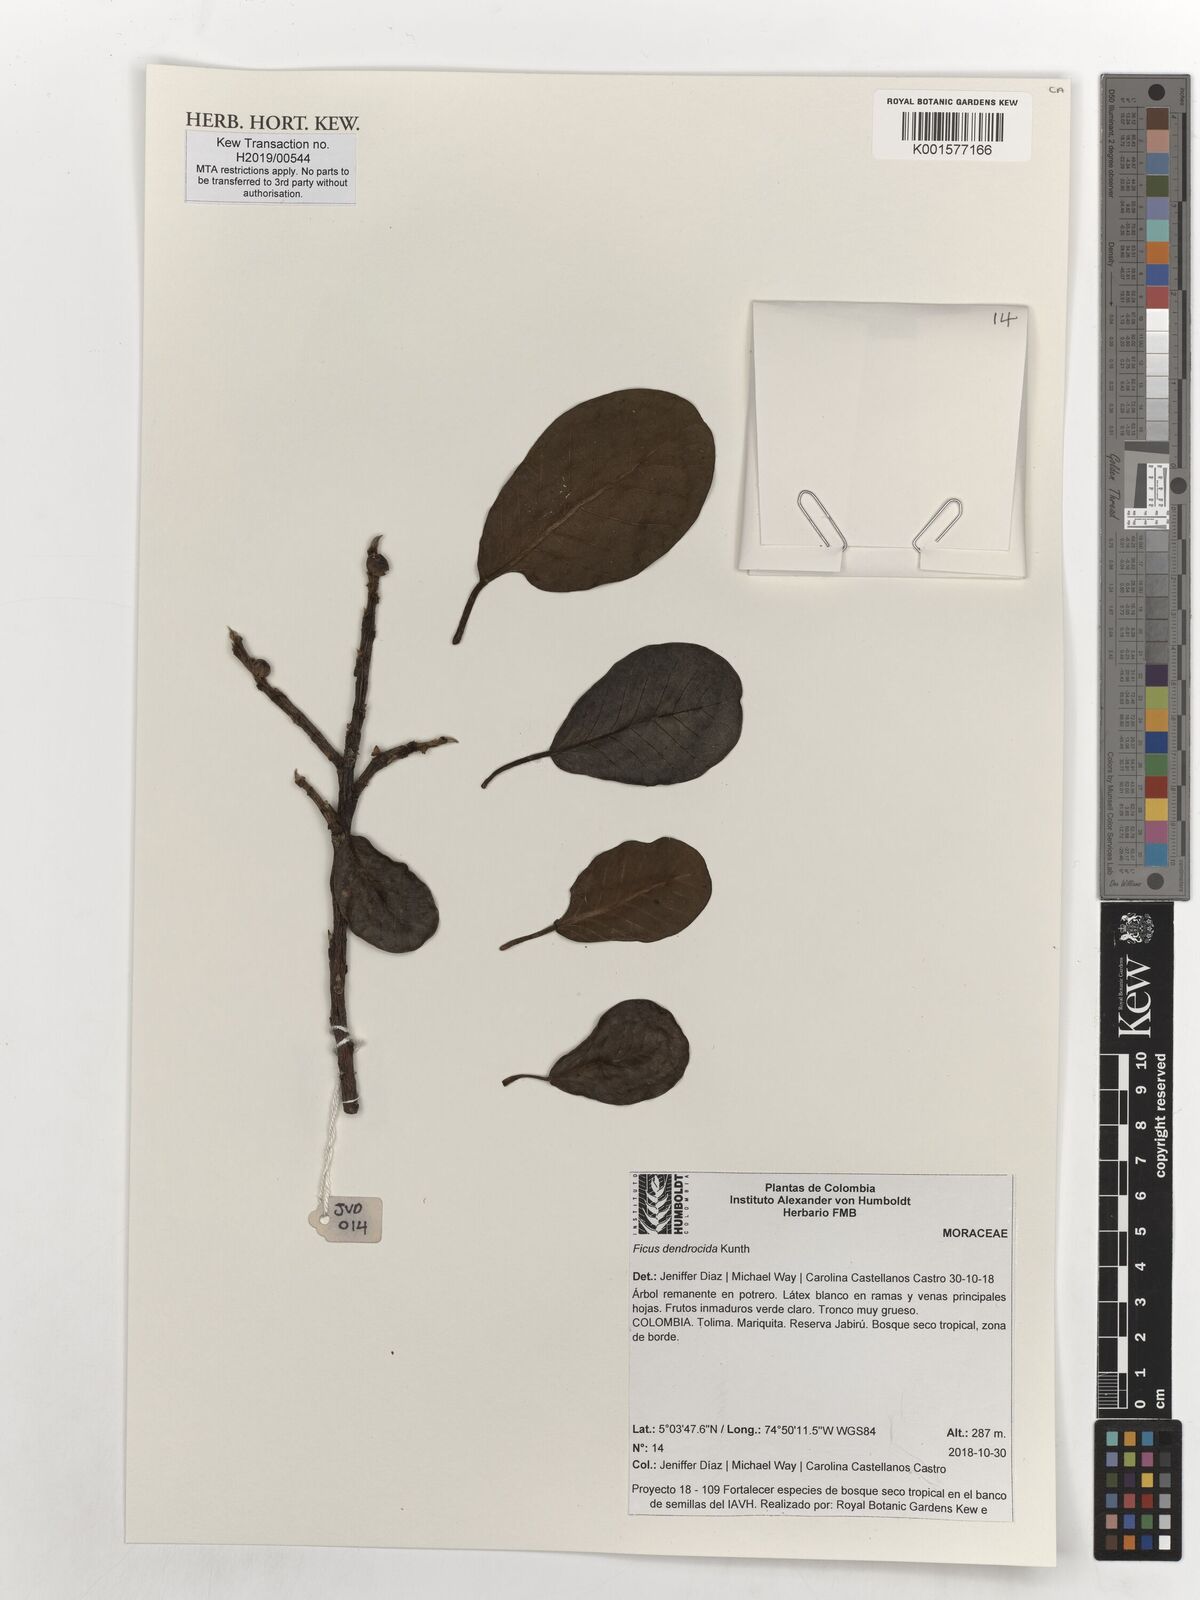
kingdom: Plantae
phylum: Tracheophyta
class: Magnoliopsida
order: Rosales
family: Moraceae
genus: Ficus
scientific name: Ficus dendrocida
